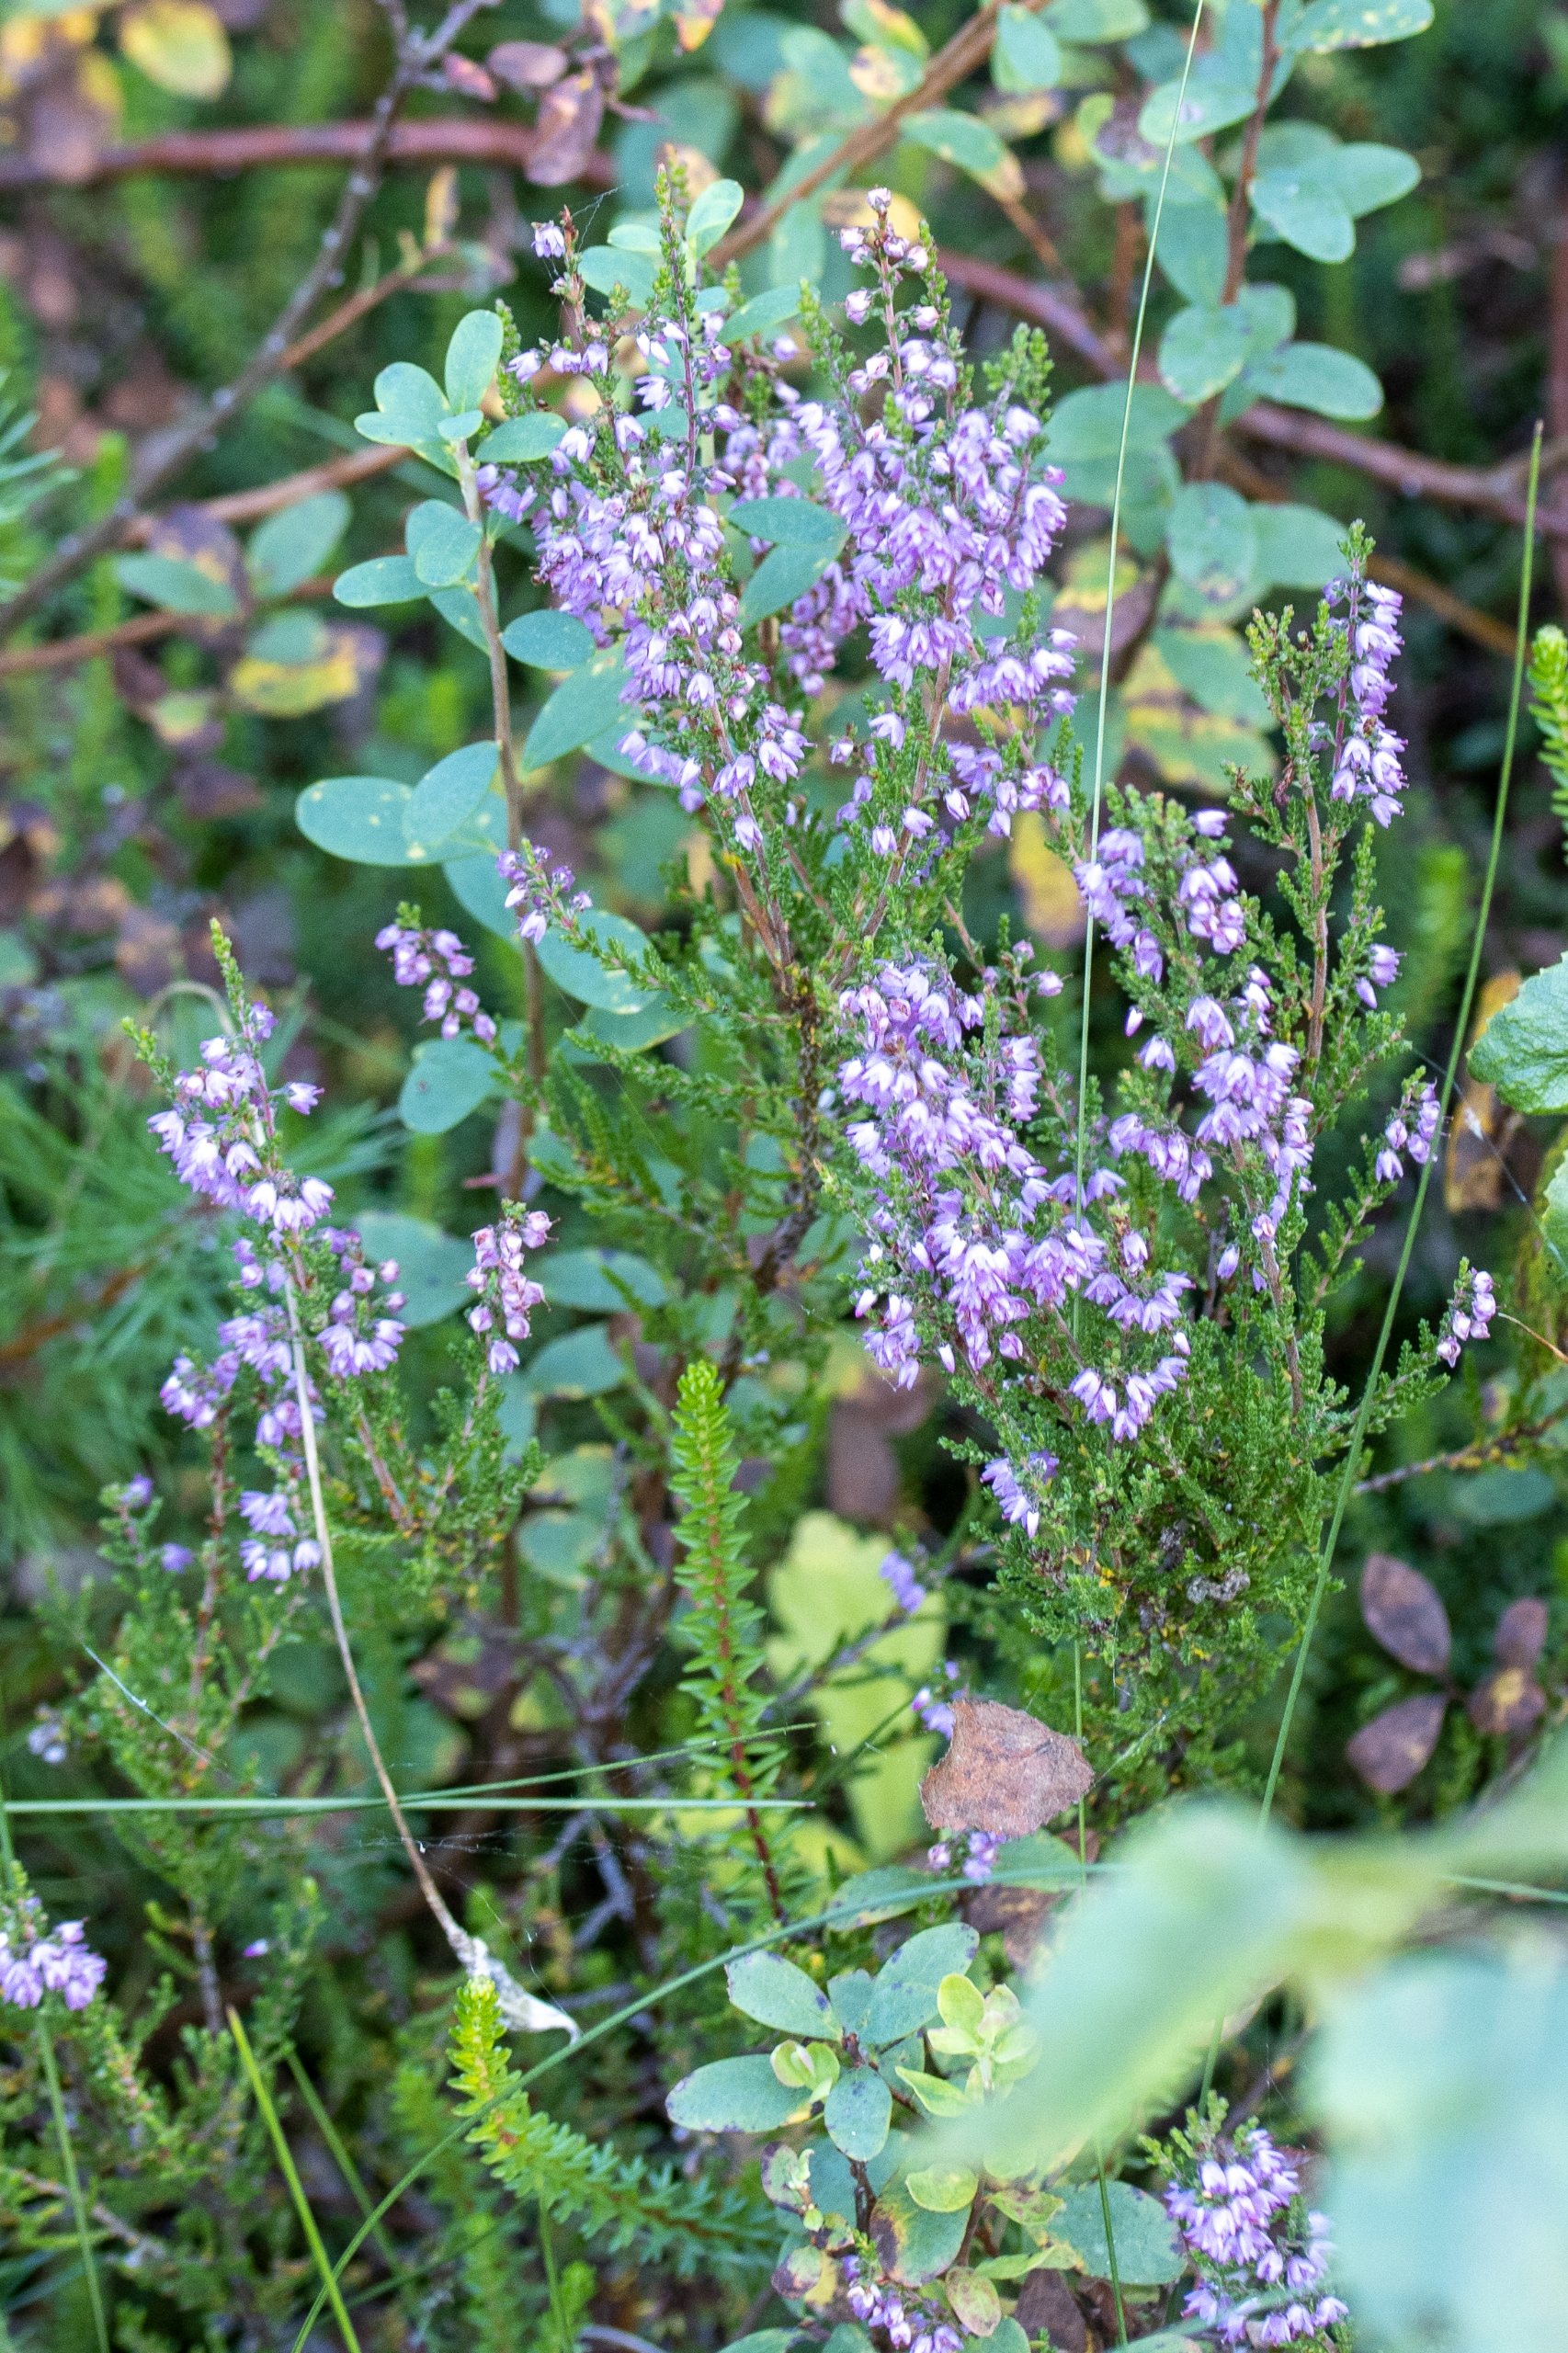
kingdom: Plantae
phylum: Tracheophyta
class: Magnoliopsida
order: Ericales
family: Ericaceae
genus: Calluna
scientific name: Calluna vulgaris
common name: Hedelyng
